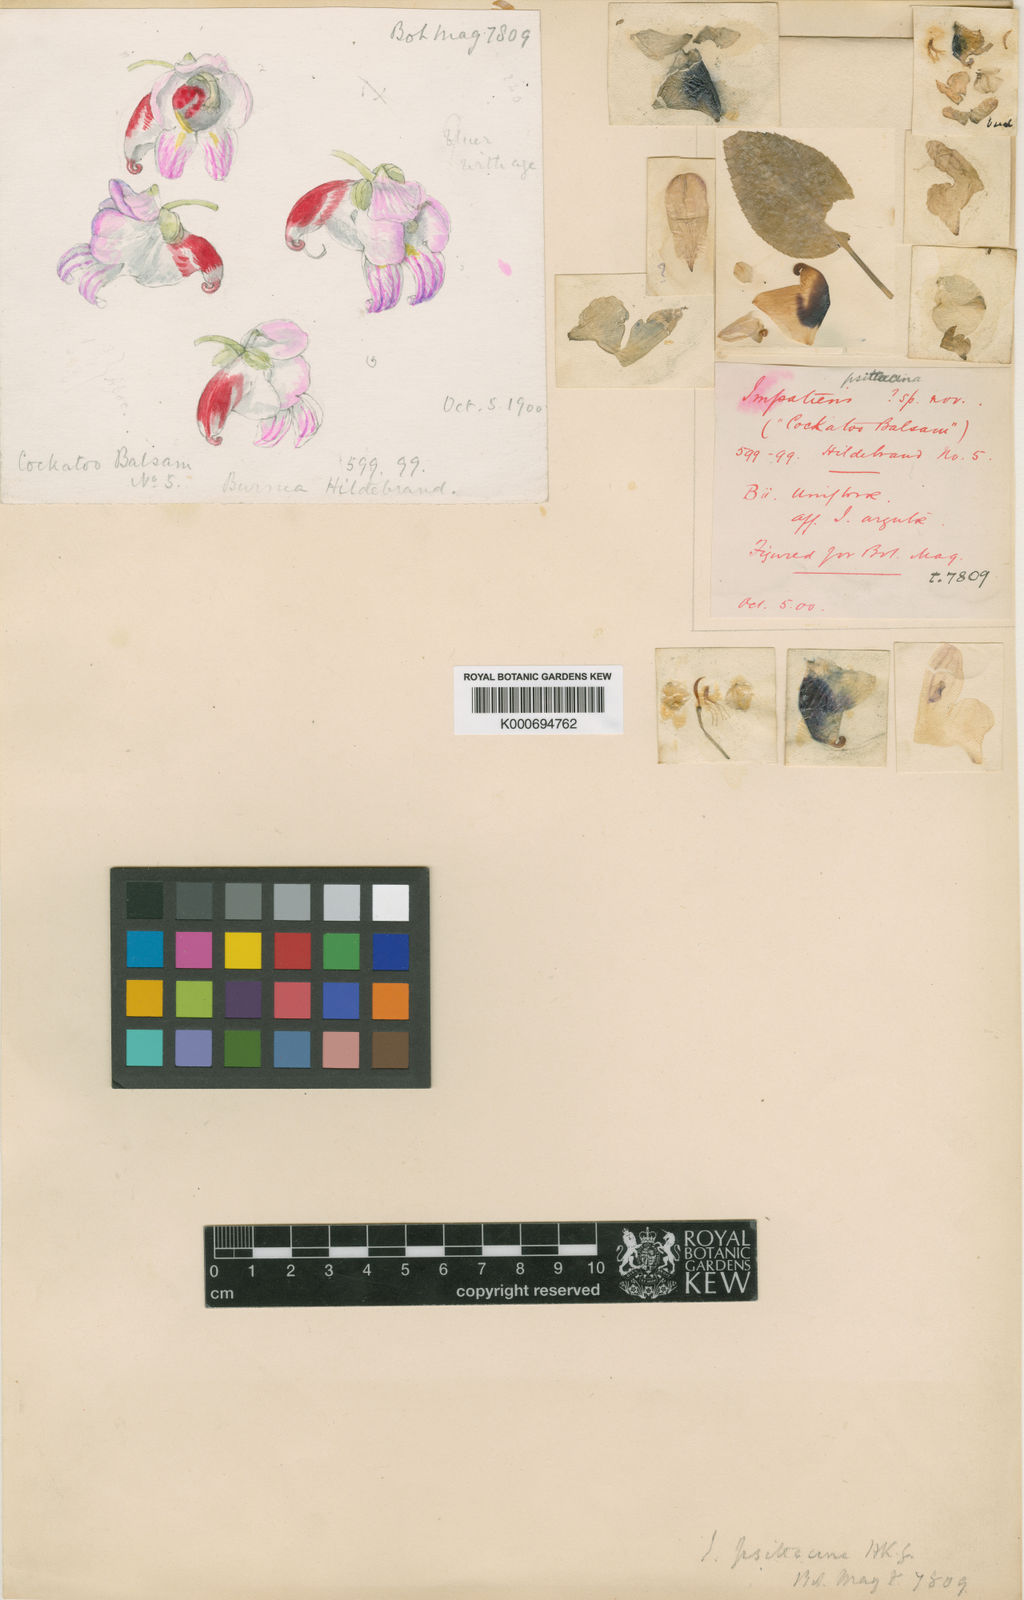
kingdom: Plantae
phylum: Tracheophyta
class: Magnoliopsida
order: Ericales
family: Balsaminaceae
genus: Impatiens
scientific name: Impatiens psittacina
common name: Parrot-flower
